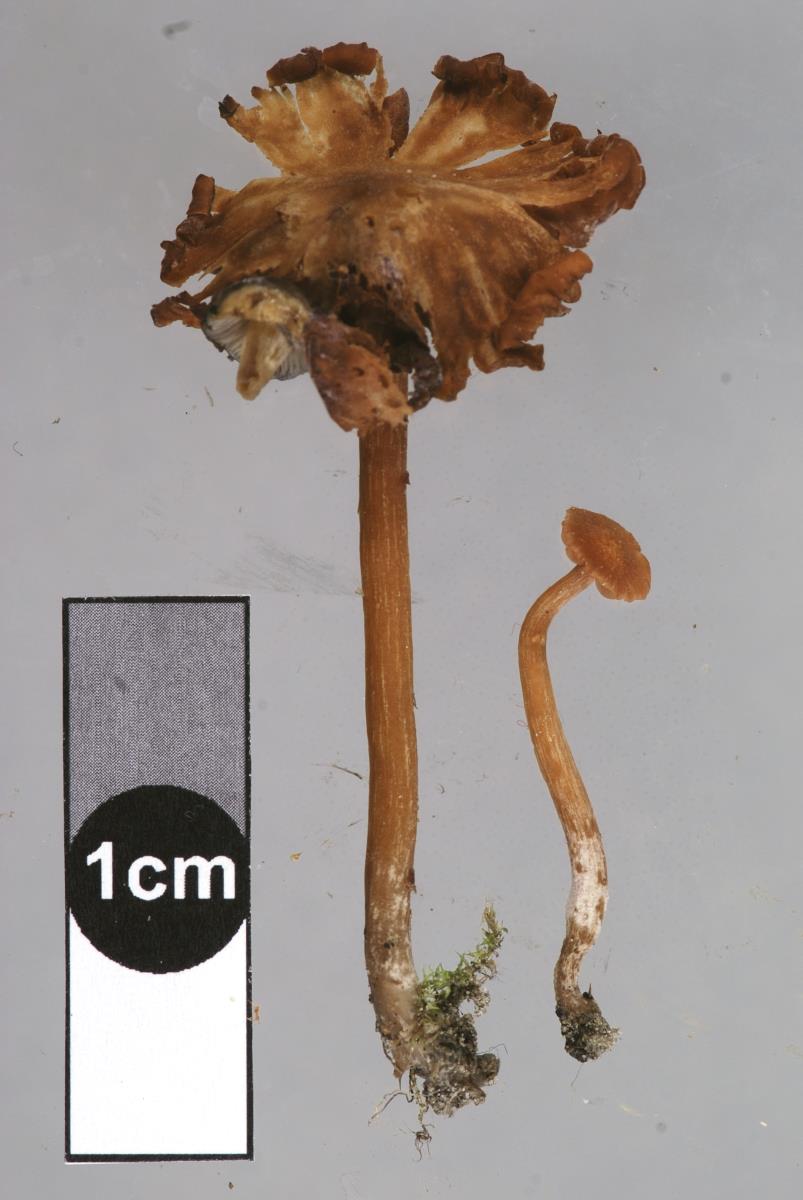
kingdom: Fungi
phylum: Basidiomycota
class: Agaricomycetes
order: Agaricales
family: Hydnangiaceae
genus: Laccaria
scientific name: Laccaria pumila
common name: Willow deceiver
